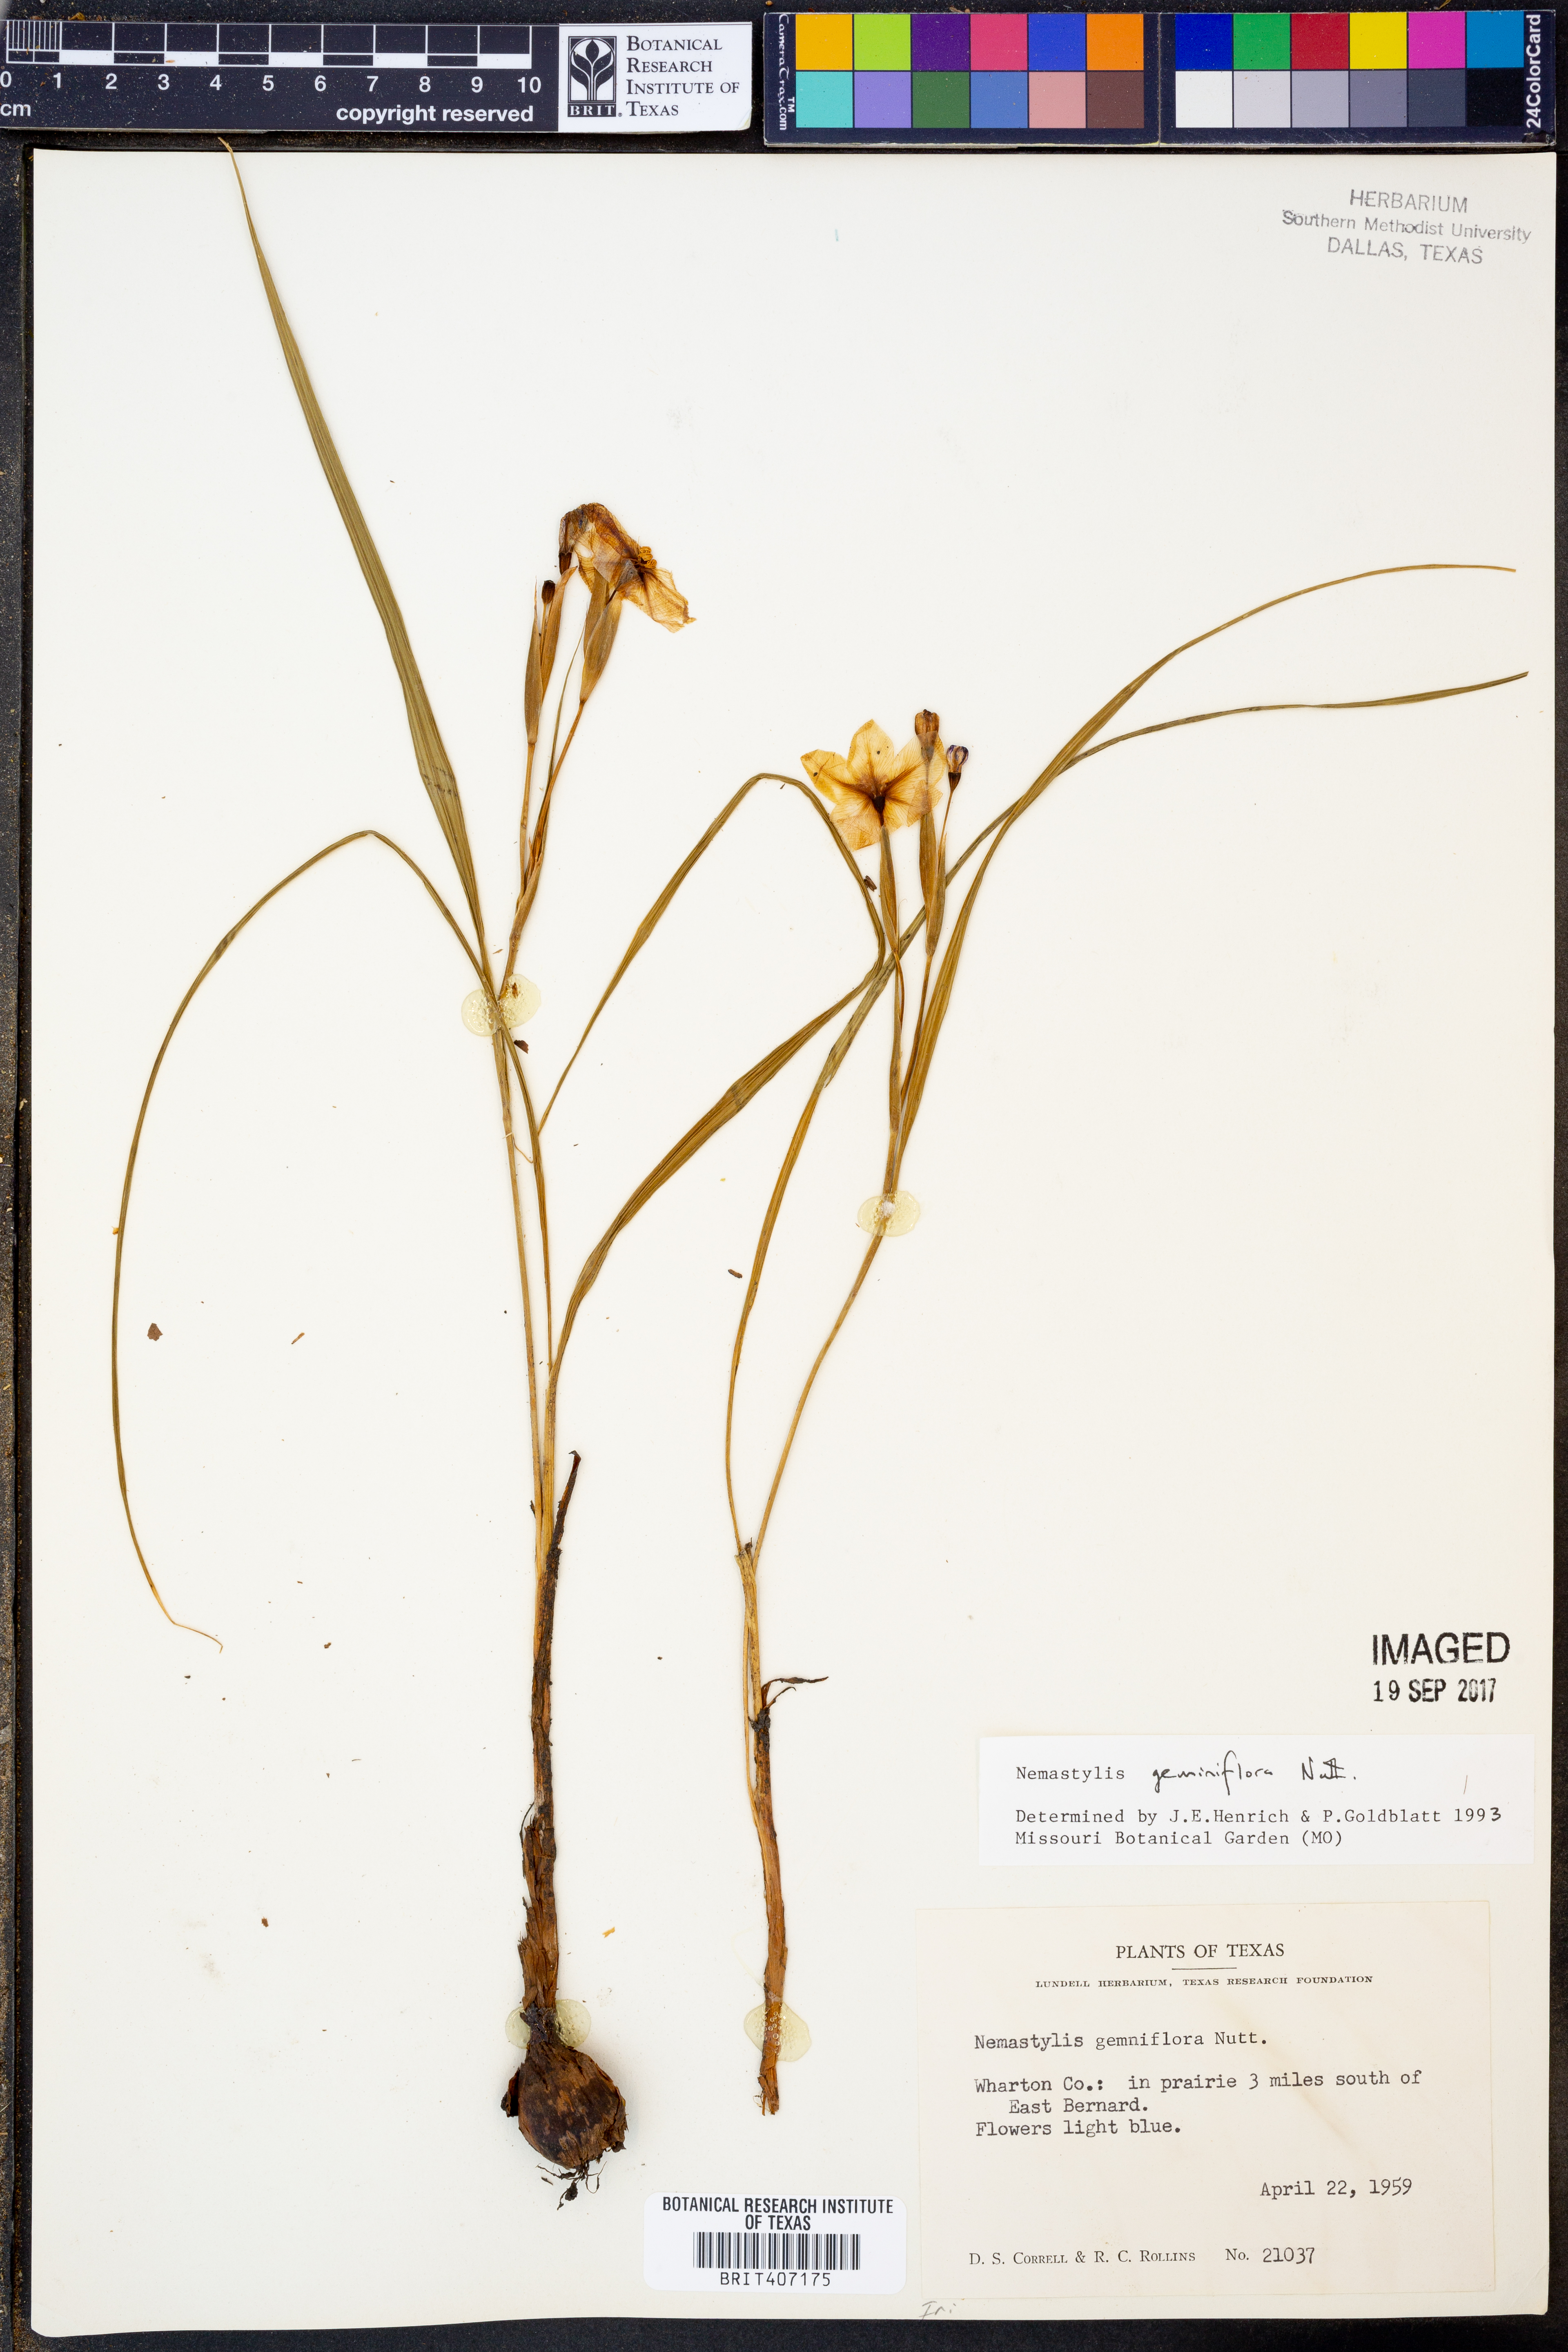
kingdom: Plantae
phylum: Tracheophyta
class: Liliopsida
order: Asparagales
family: Iridaceae
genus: Nemastylis
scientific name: Nemastylis geminiflora
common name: Prairie celestial
